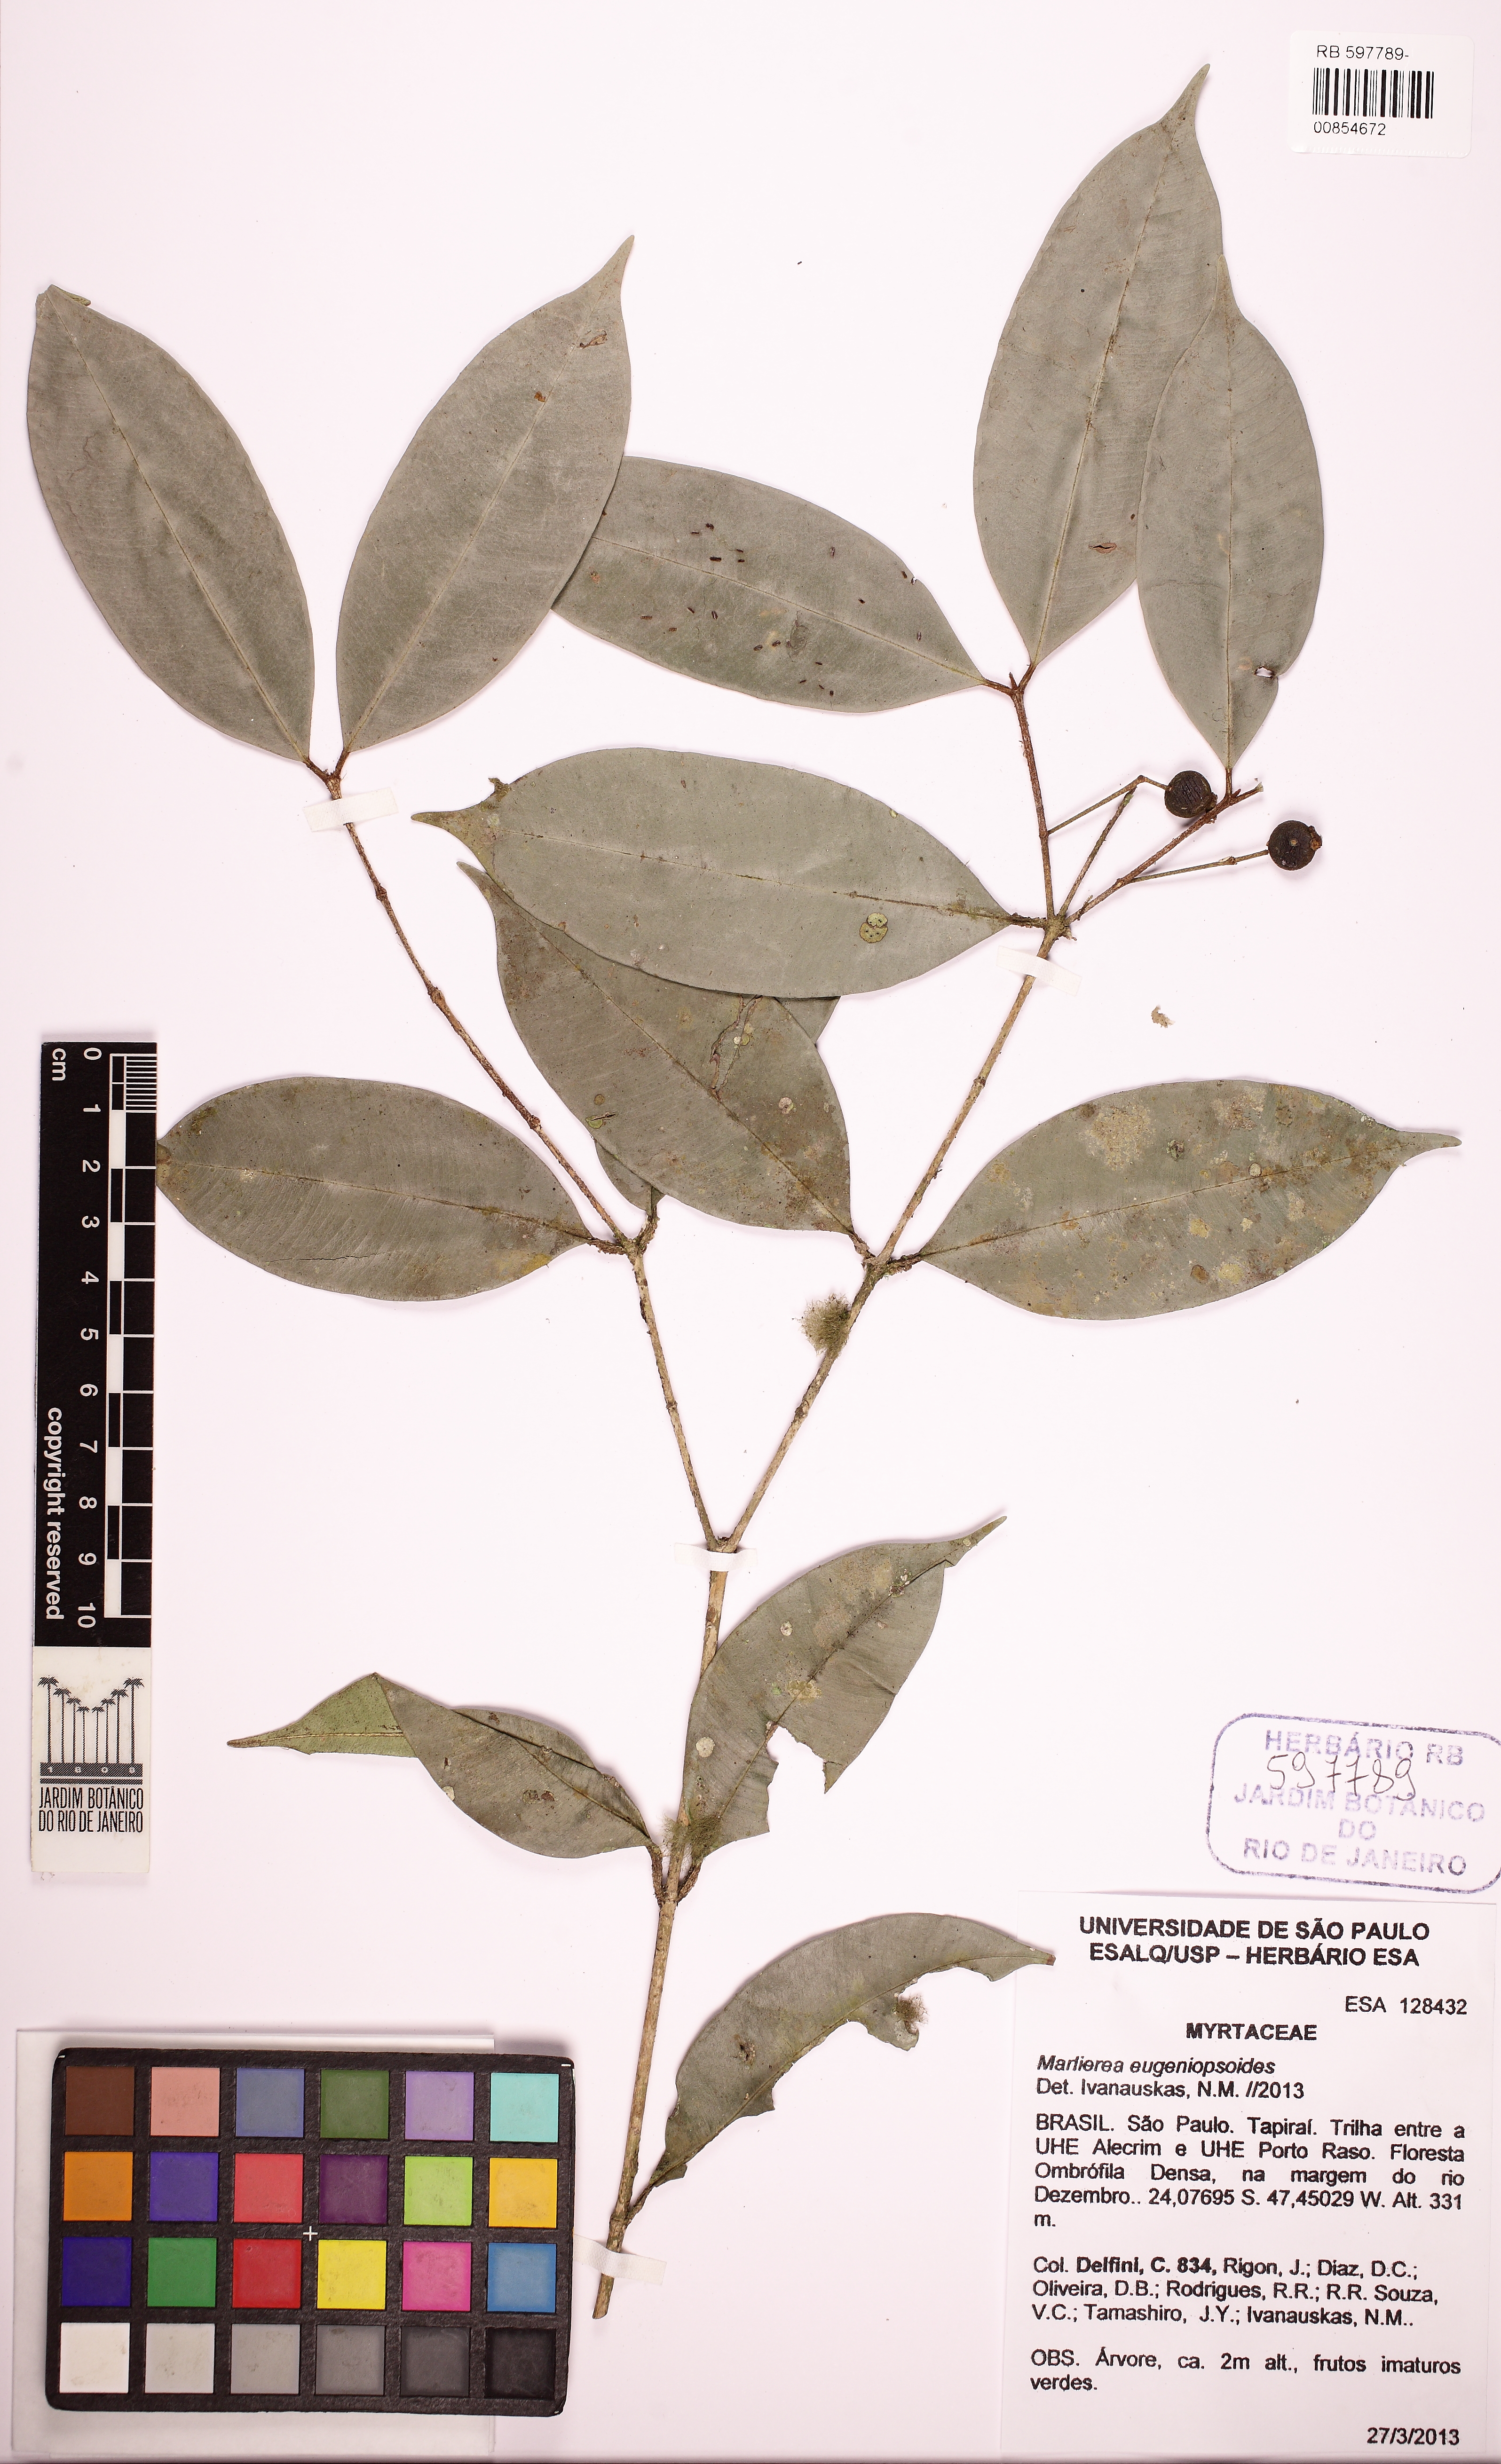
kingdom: Plantae
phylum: Tracheophyta
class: Magnoliopsida
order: Myrtales
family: Myrtaceae
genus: Myrcia
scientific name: Myrcia eugeniopsoides
